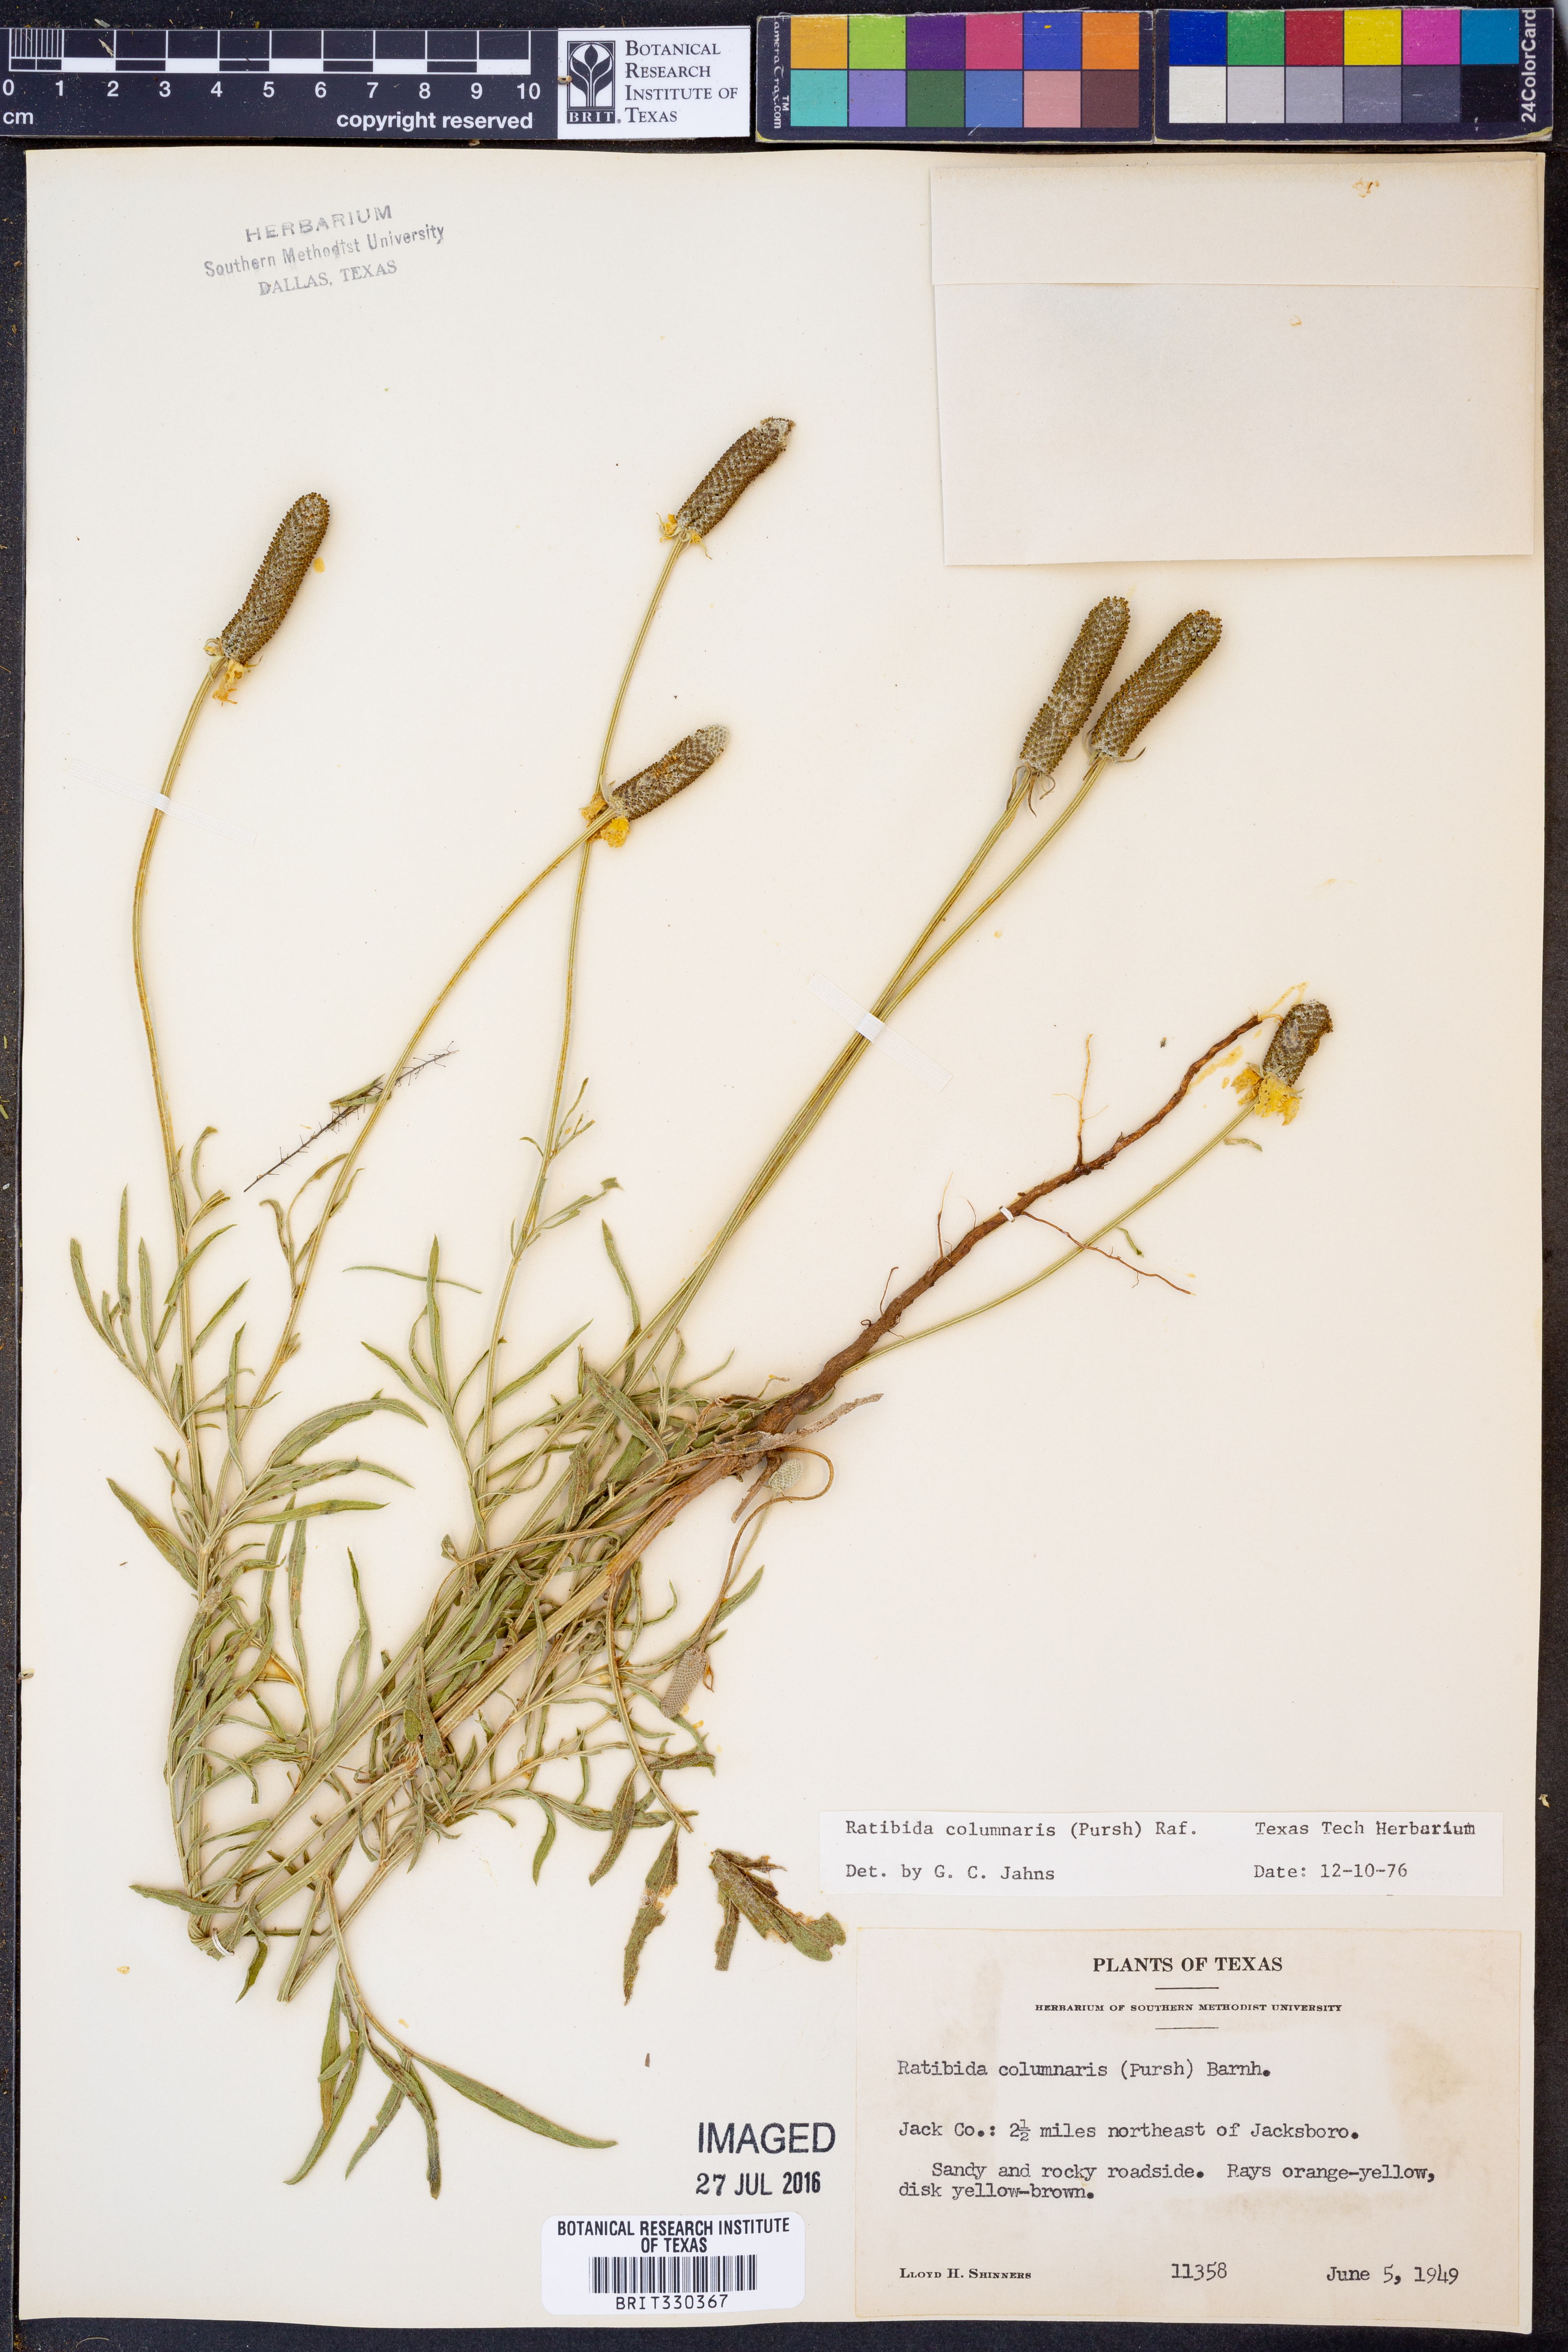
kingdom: Plantae
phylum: Tracheophyta
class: Magnoliopsida
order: Asterales
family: Asteraceae
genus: Ratibida
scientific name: Ratibida columnifera
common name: Prairie coneflower
